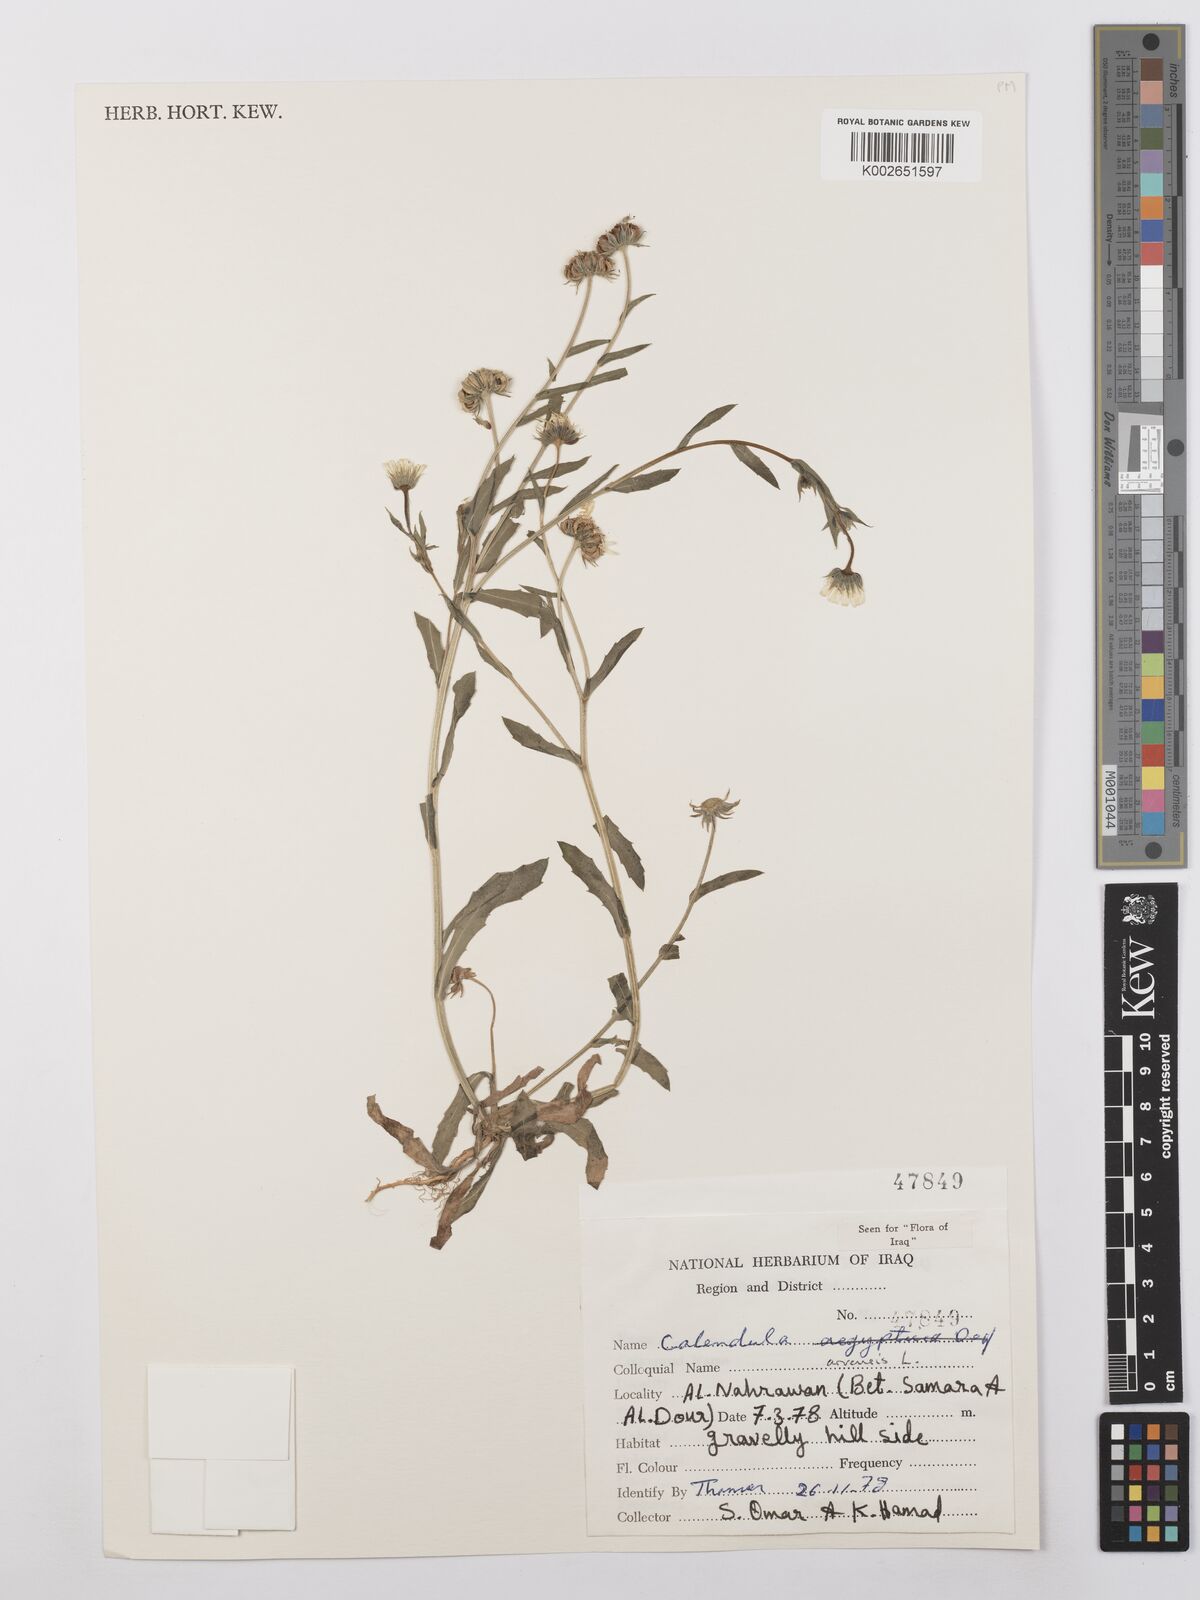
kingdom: Plantae
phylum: Tracheophyta
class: Magnoliopsida
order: Asterales
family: Asteraceae
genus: Calendula
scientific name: Calendula arvensis
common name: Field marigold
